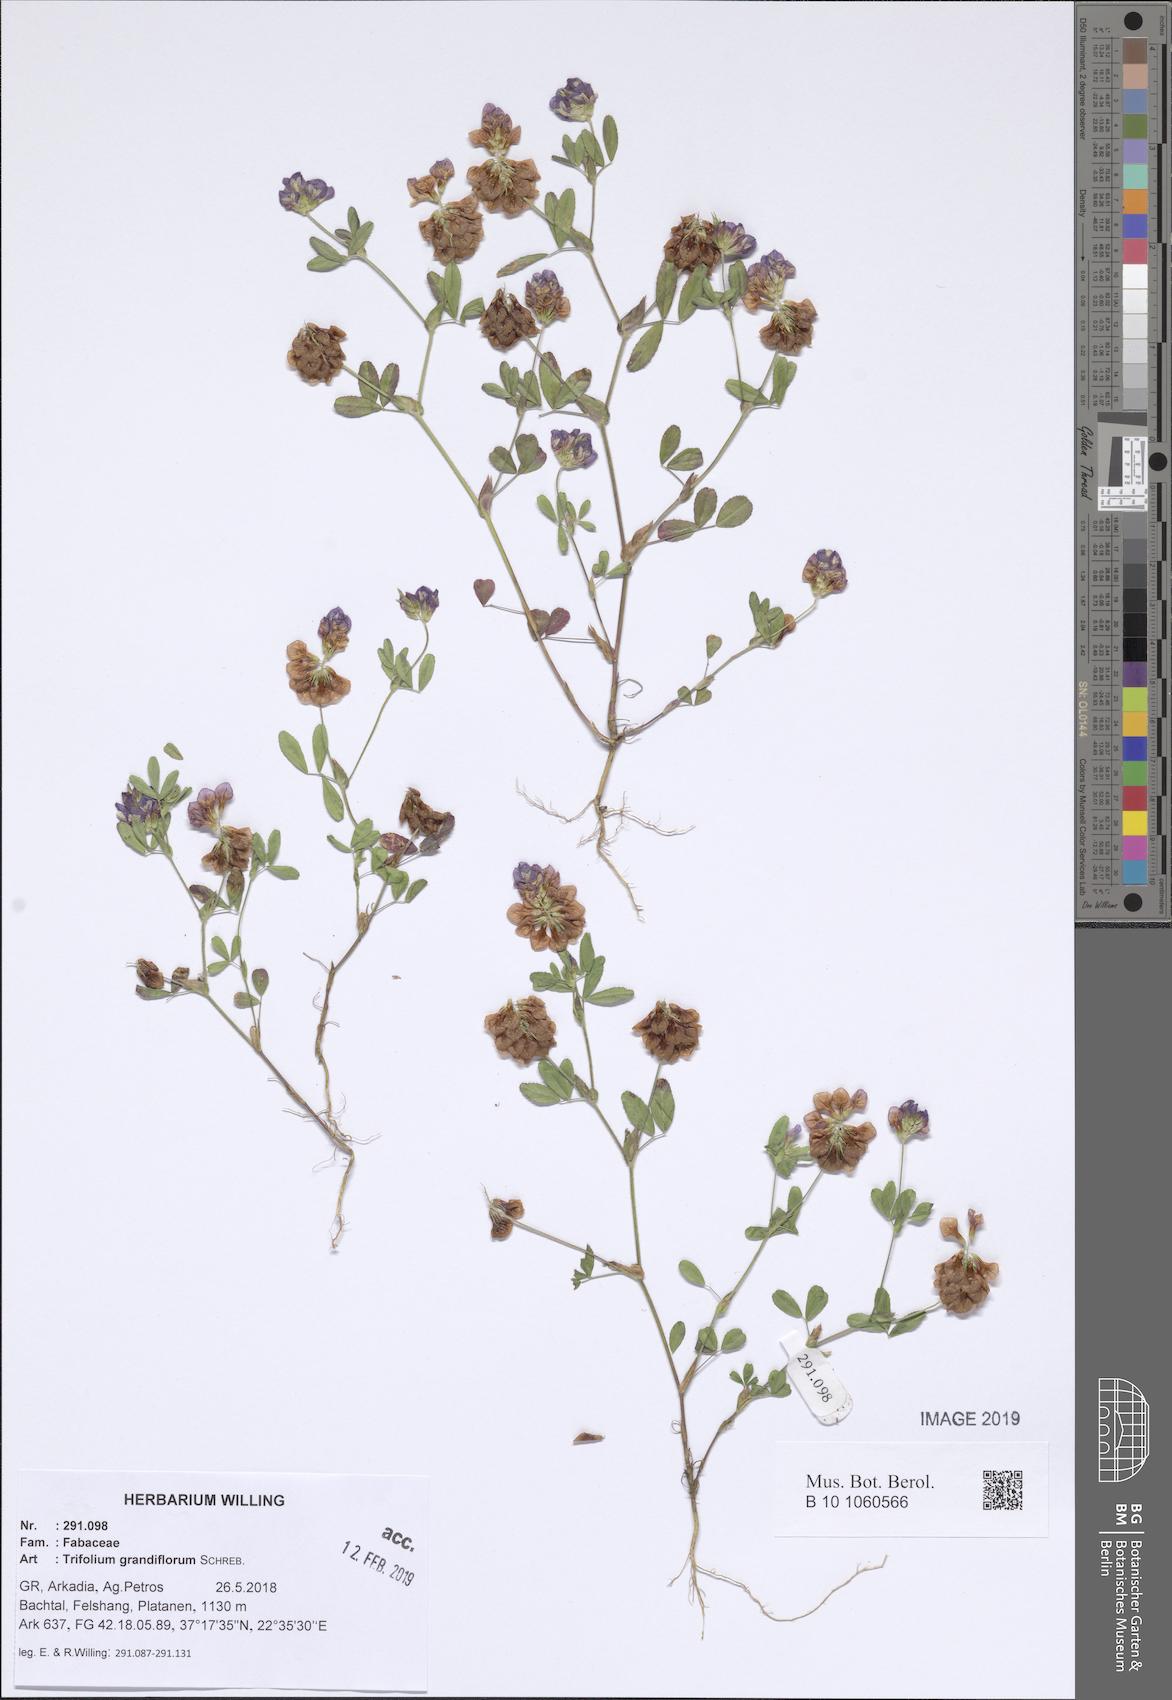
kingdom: Plantae
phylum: Tracheophyta
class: Magnoliopsida
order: Fabales
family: Fabaceae
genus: Trifolium
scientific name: Trifolium grandiflorum
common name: Large-flower hop clover
